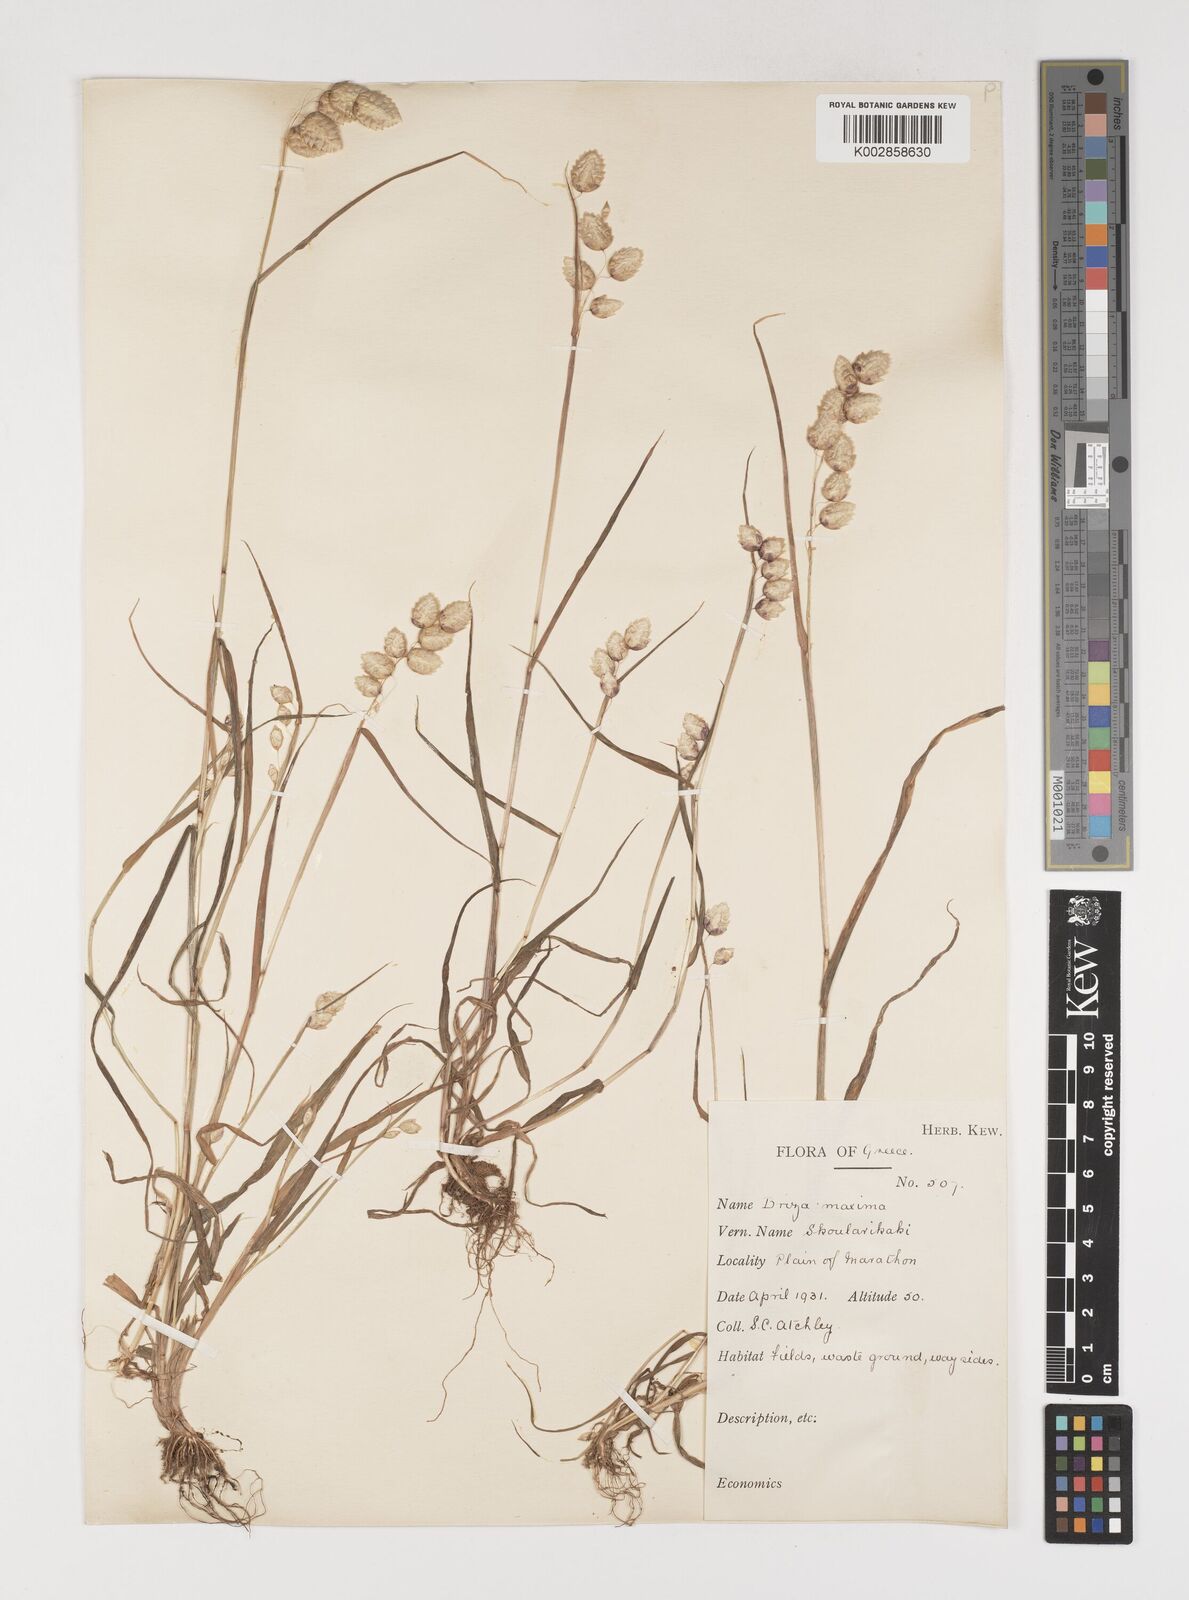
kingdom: Plantae
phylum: Tracheophyta
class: Liliopsida
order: Poales
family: Poaceae
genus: Briza
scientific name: Briza maxima
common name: Big quakinggrass
